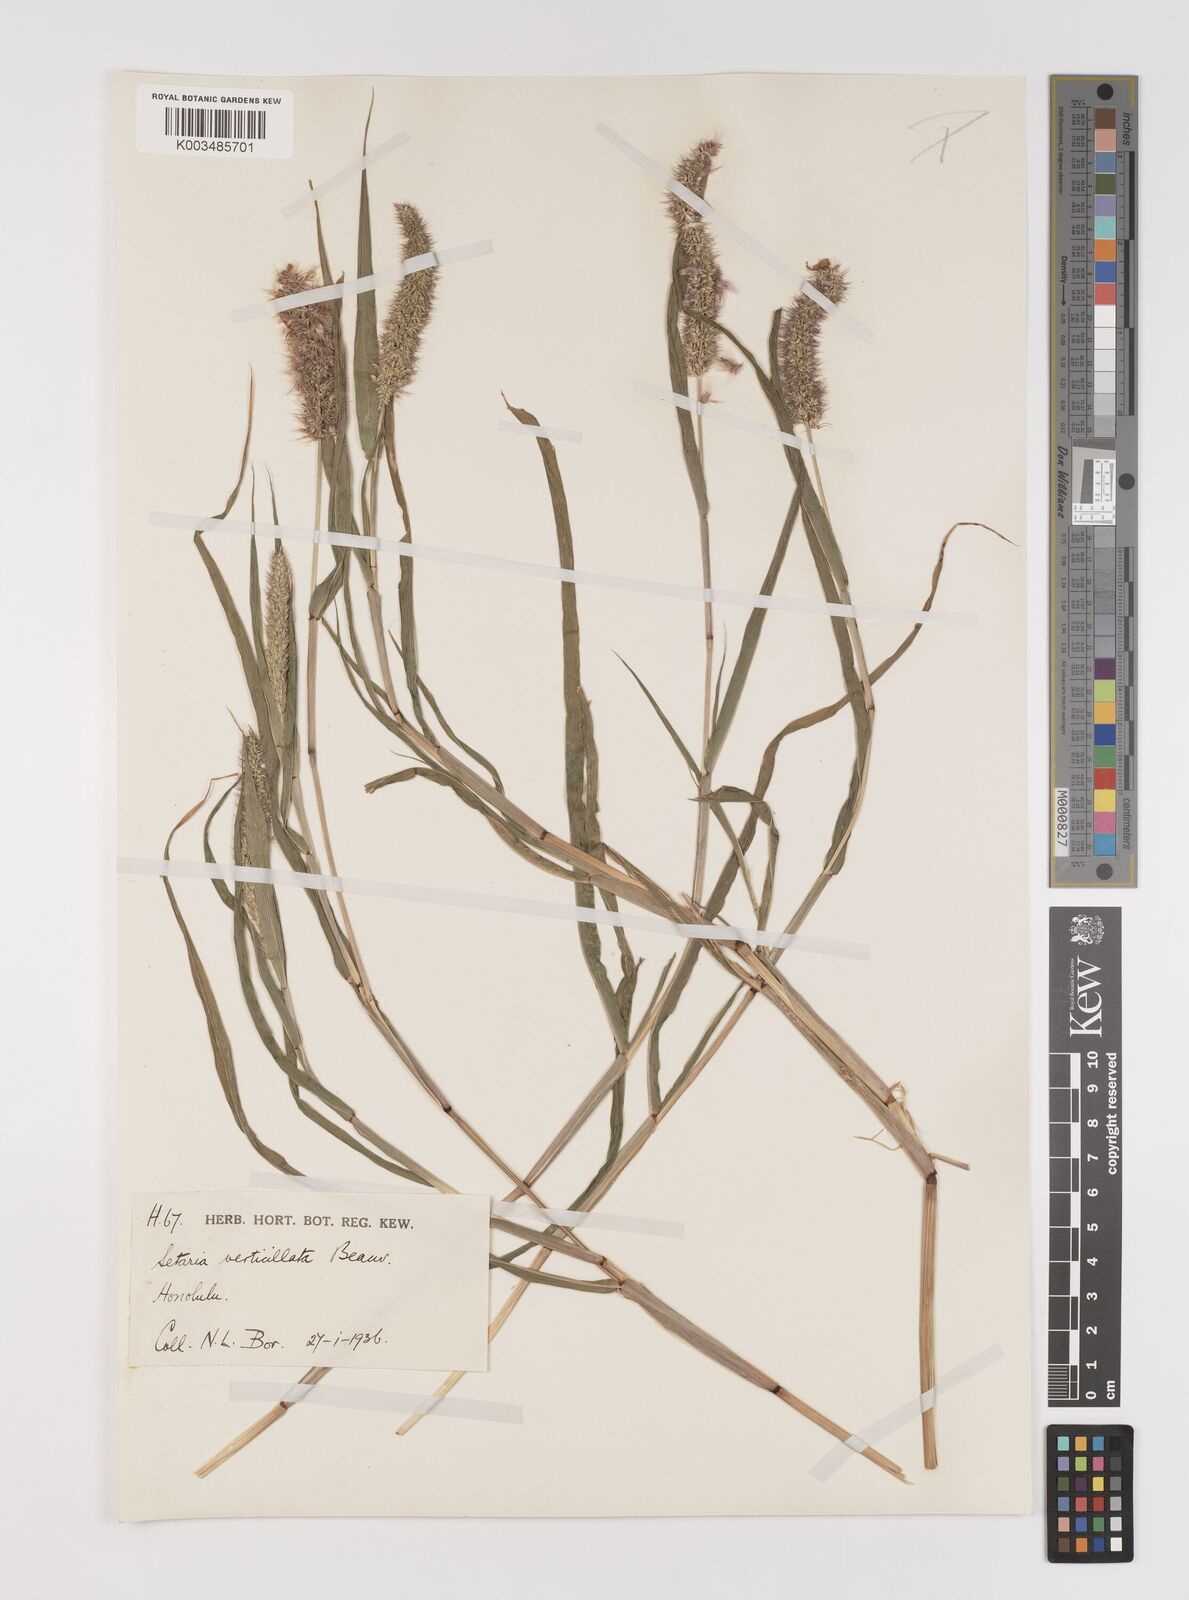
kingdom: Plantae
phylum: Tracheophyta
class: Liliopsida
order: Poales
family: Poaceae
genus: Setaria
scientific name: Setaria verticillata
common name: Hooked bristlegrass
